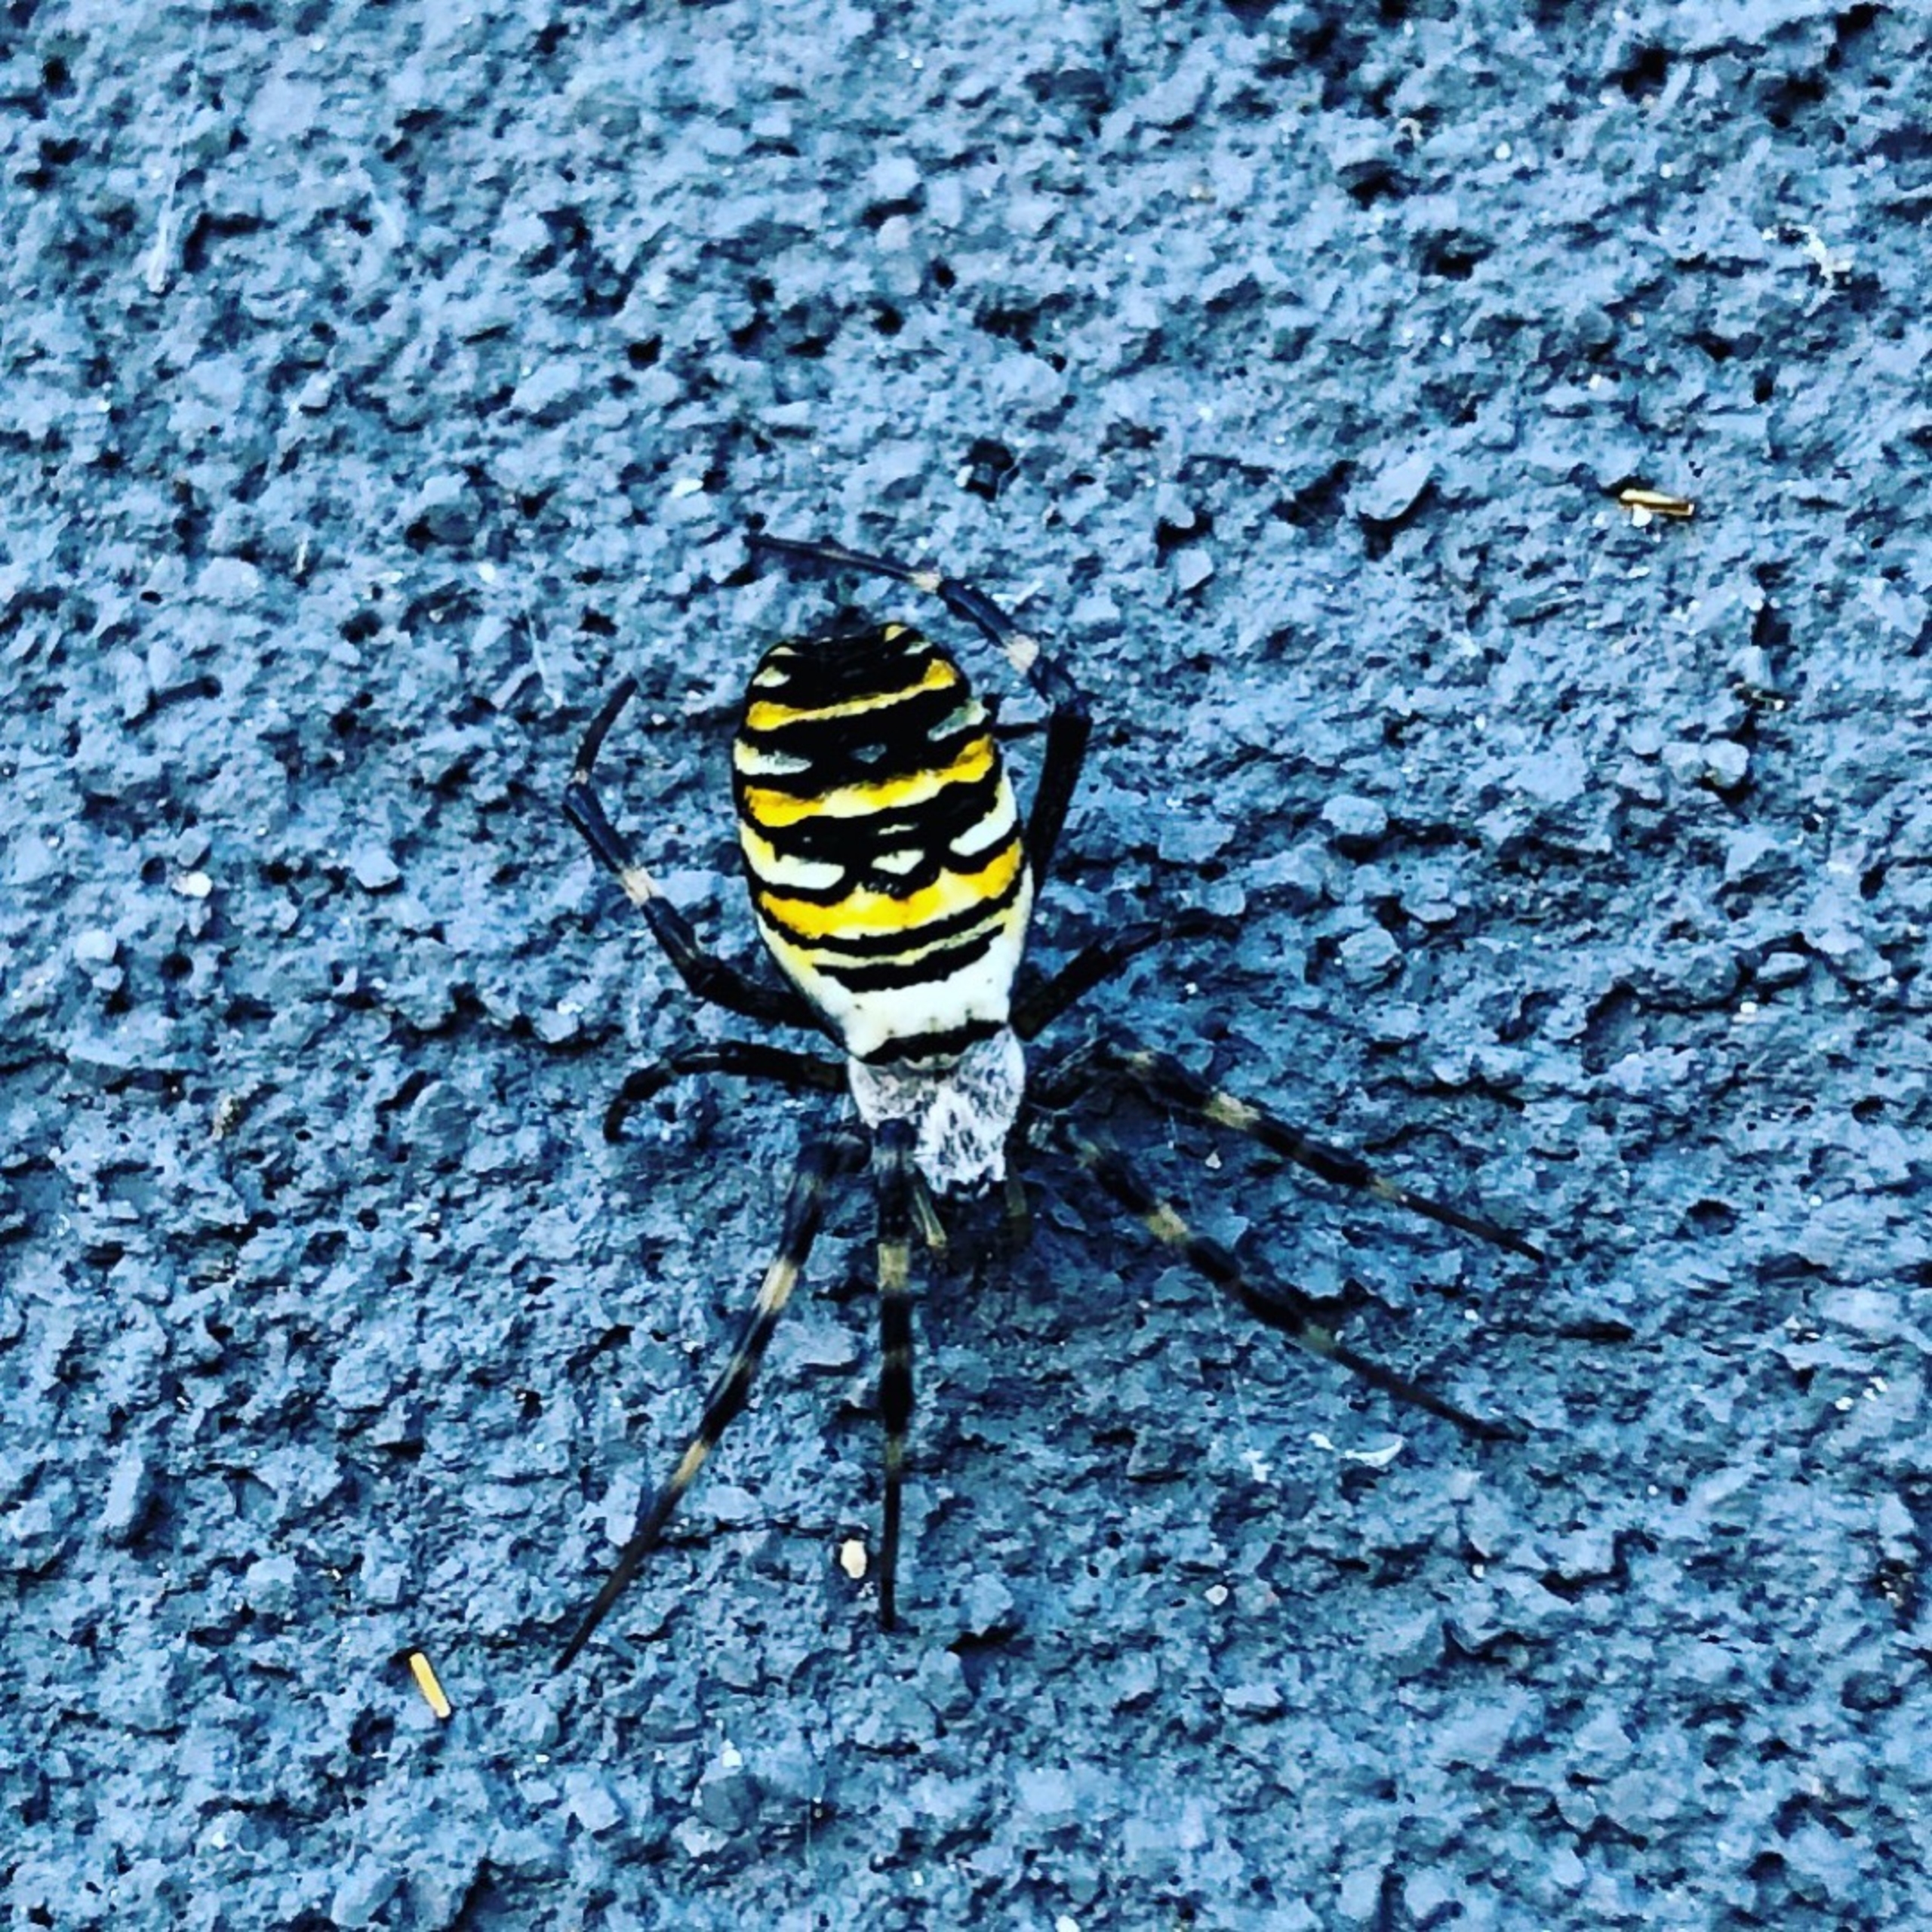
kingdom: Animalia
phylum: Arthropoda
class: Arachnida
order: Araneae
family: Araneidae
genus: Argiope
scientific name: Argiope bruennichi
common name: Hvepseedderkop
